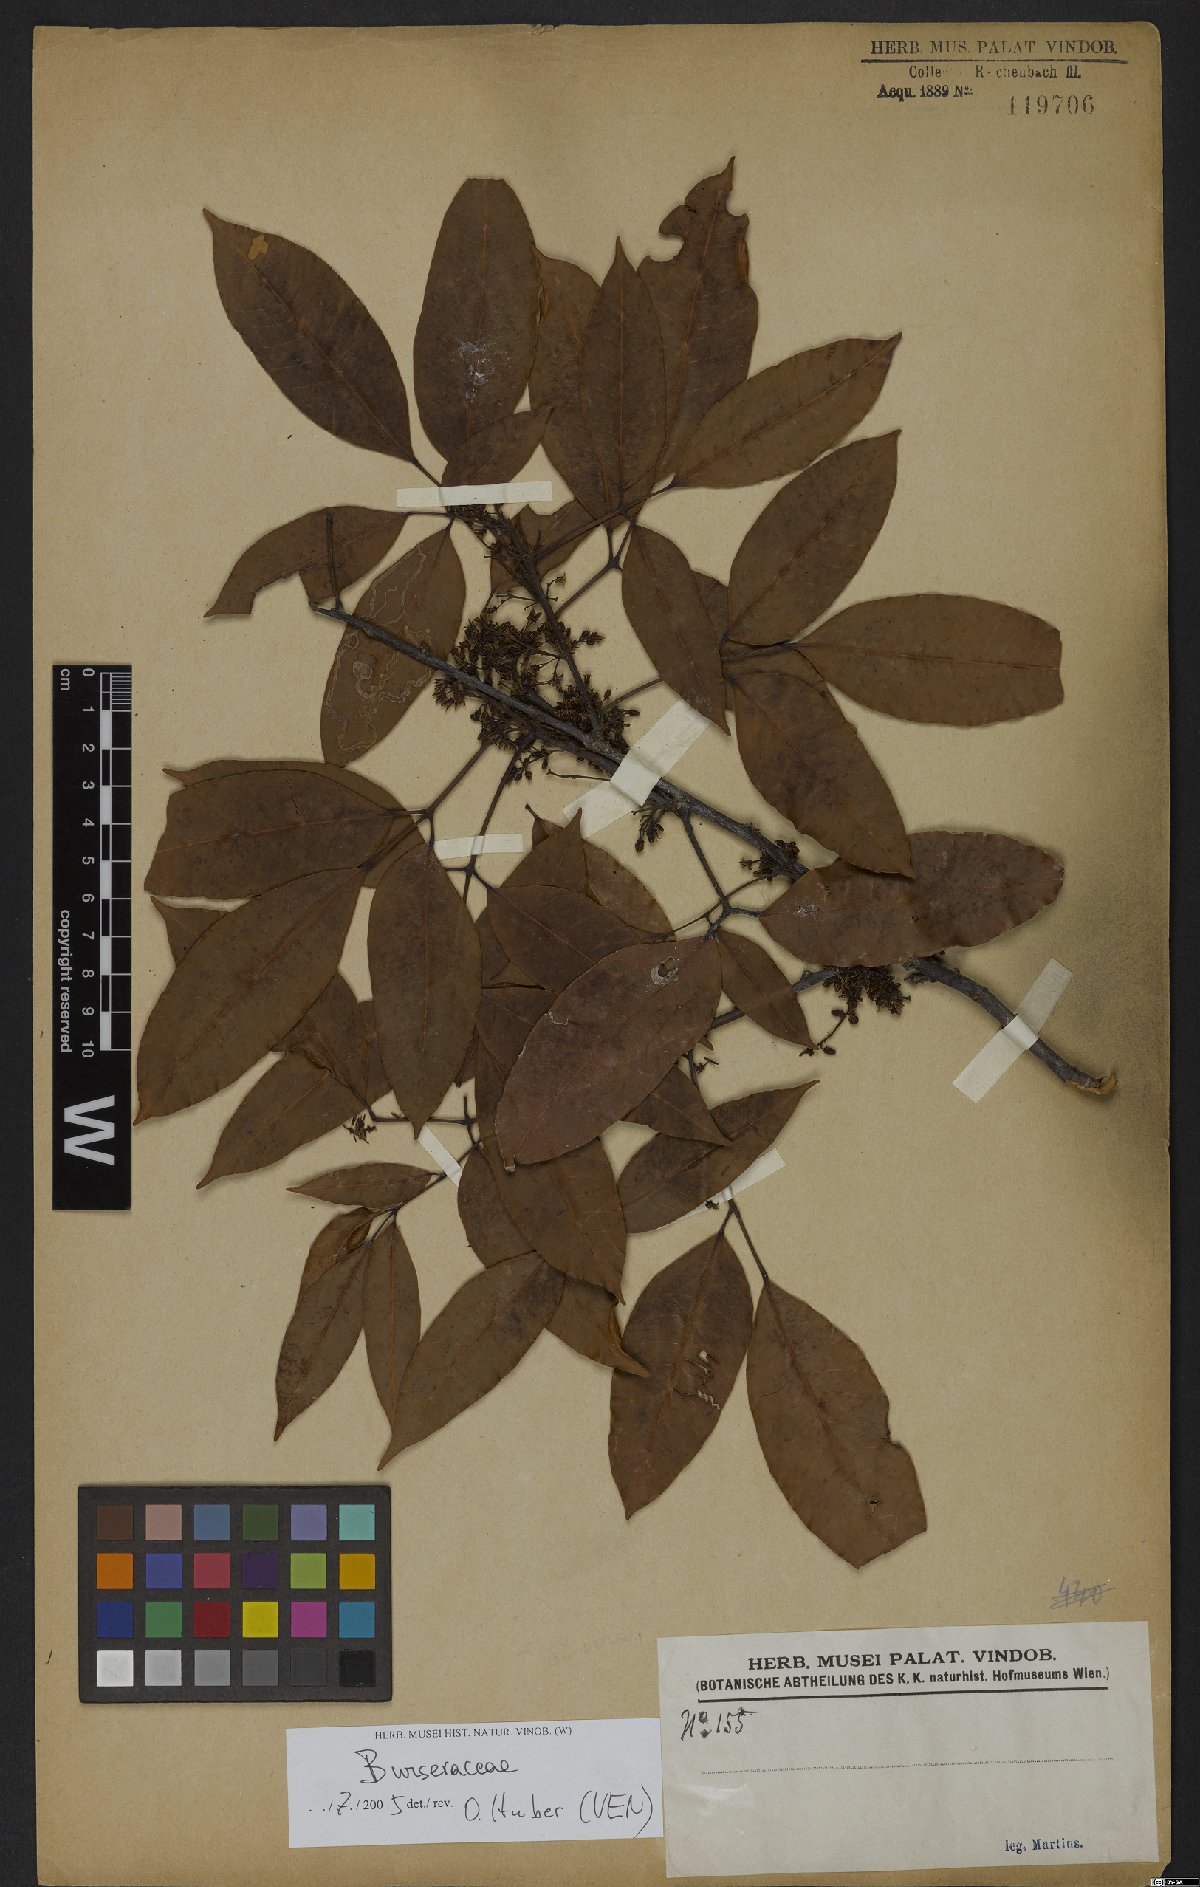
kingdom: Plantae
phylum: Tracheophyta
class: Magnoliopsida
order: Sapindales
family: Burseraceae
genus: Protium
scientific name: Protium heptaphyllum
